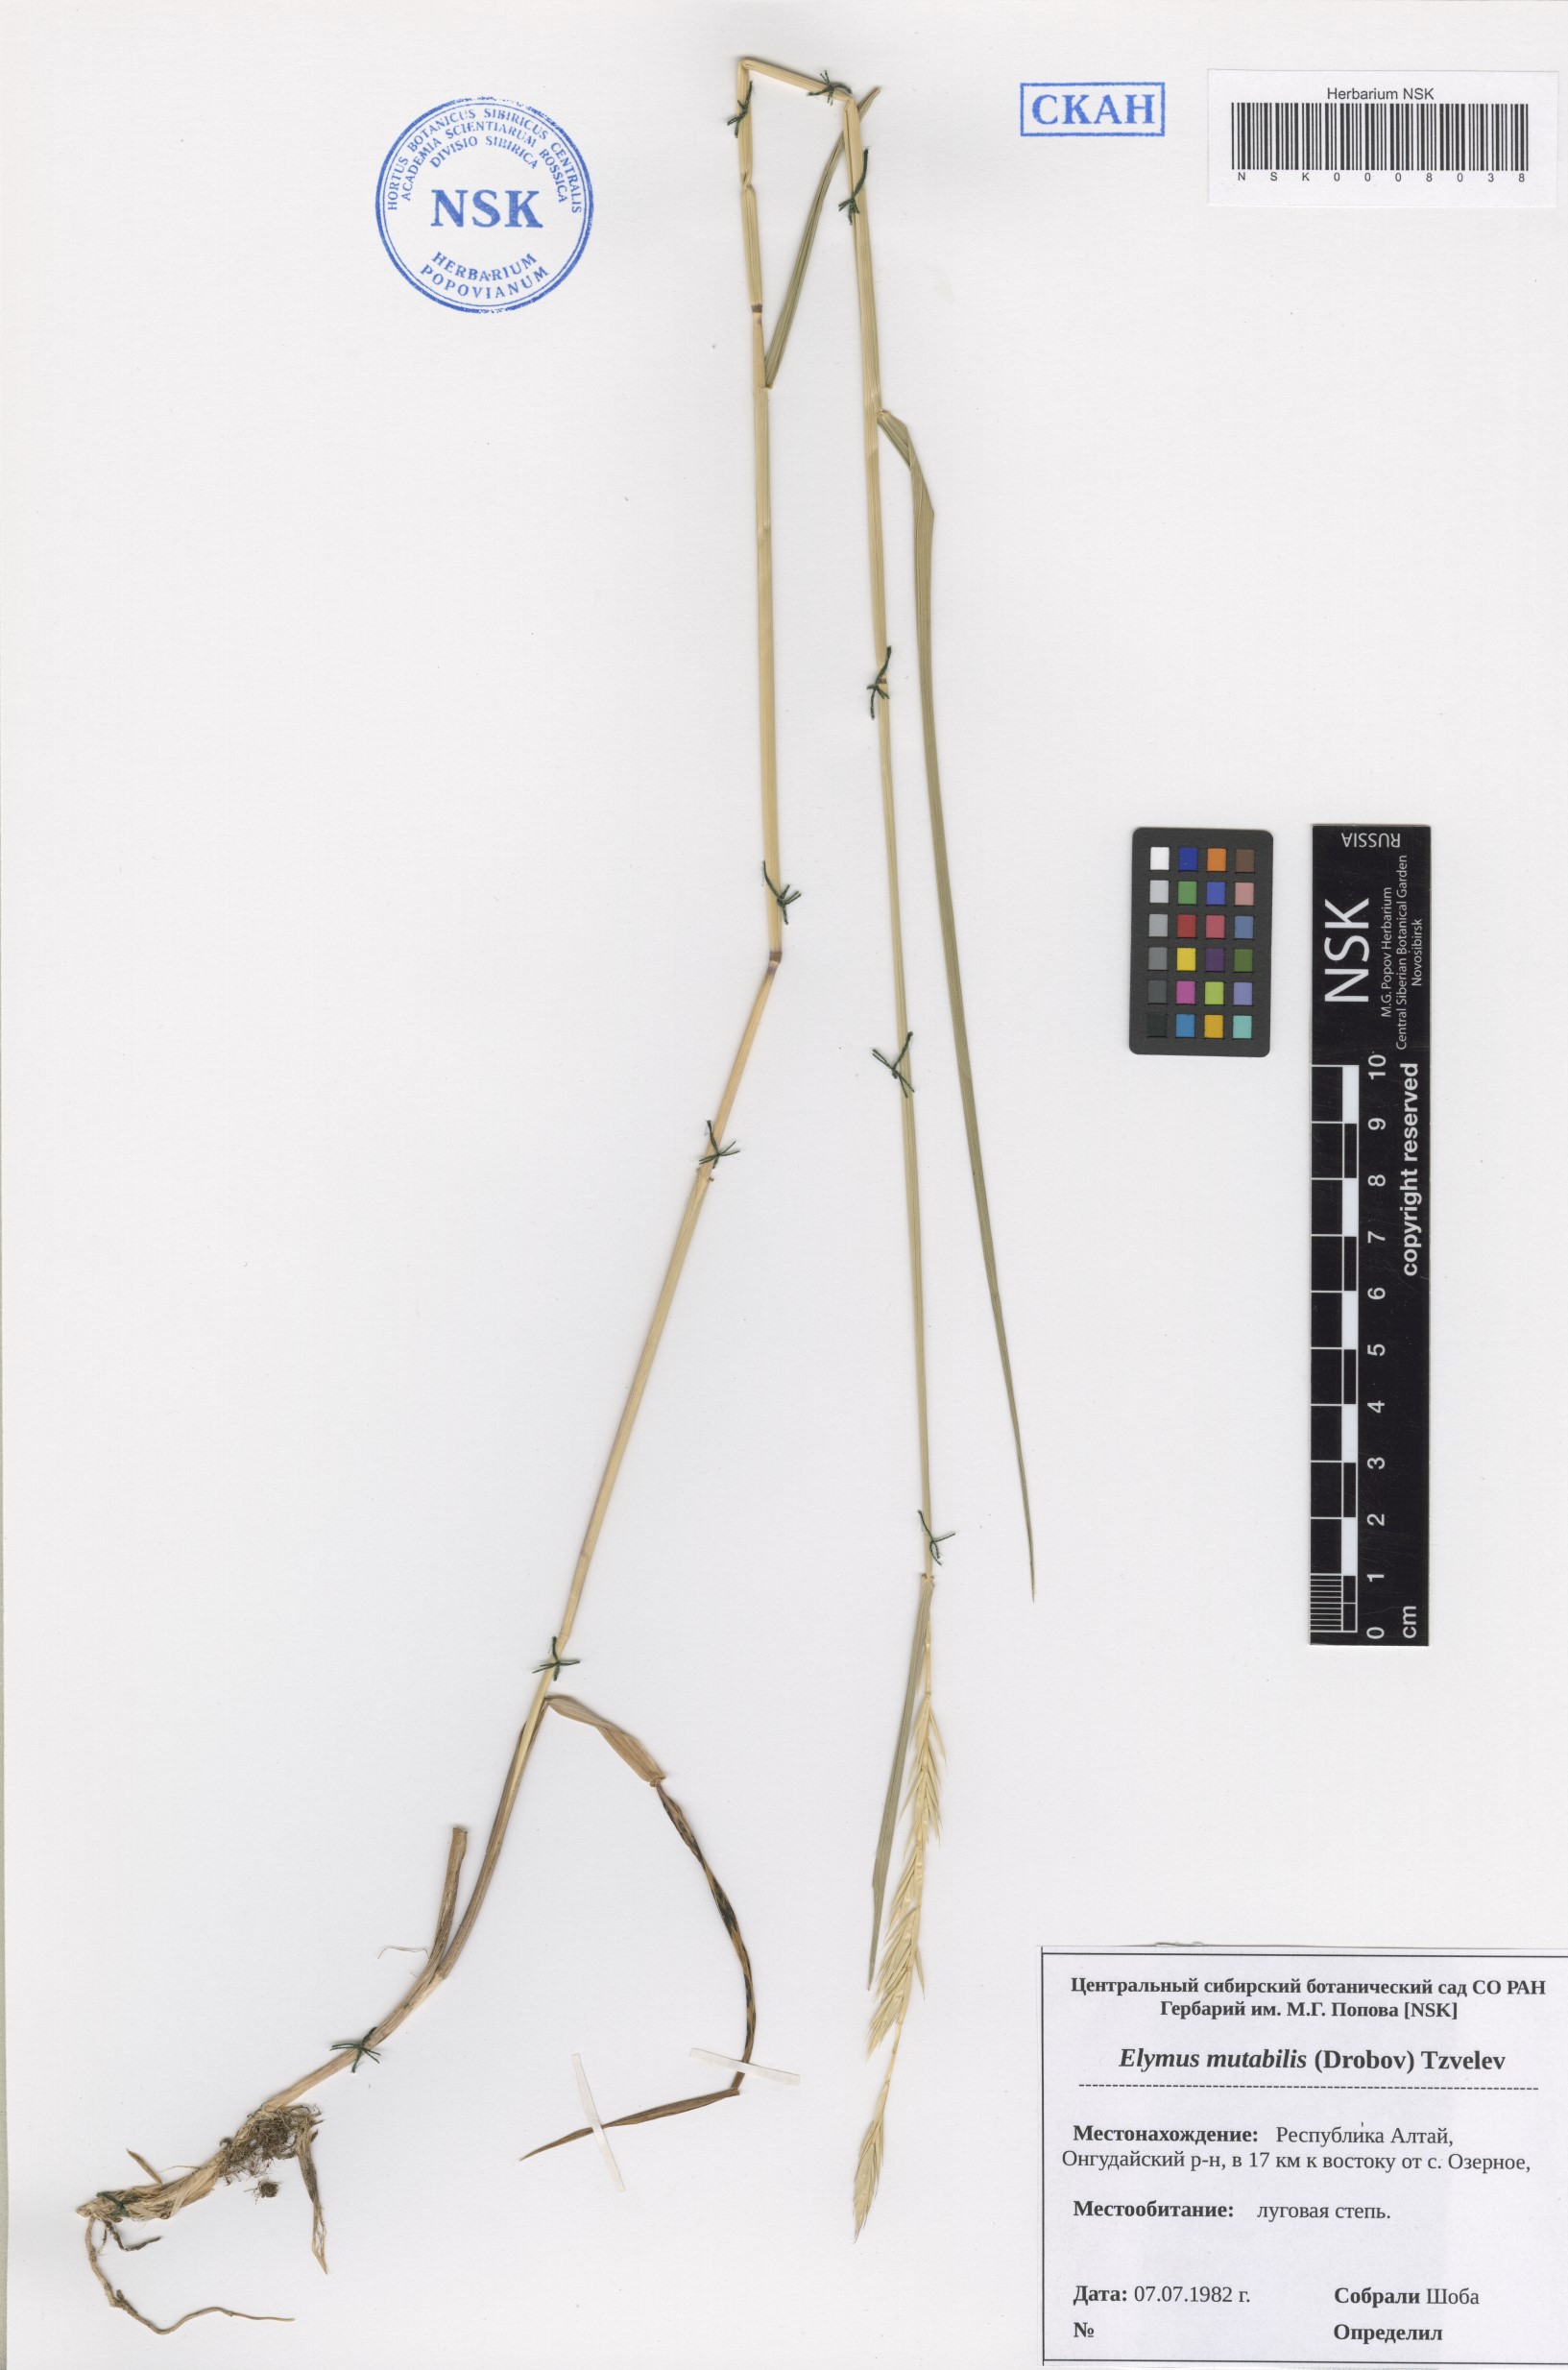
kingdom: Plantae
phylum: Tracheophyta
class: Liliopsida
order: Poales
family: Poaceae
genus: Elymus
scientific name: Elymus mutabilis
